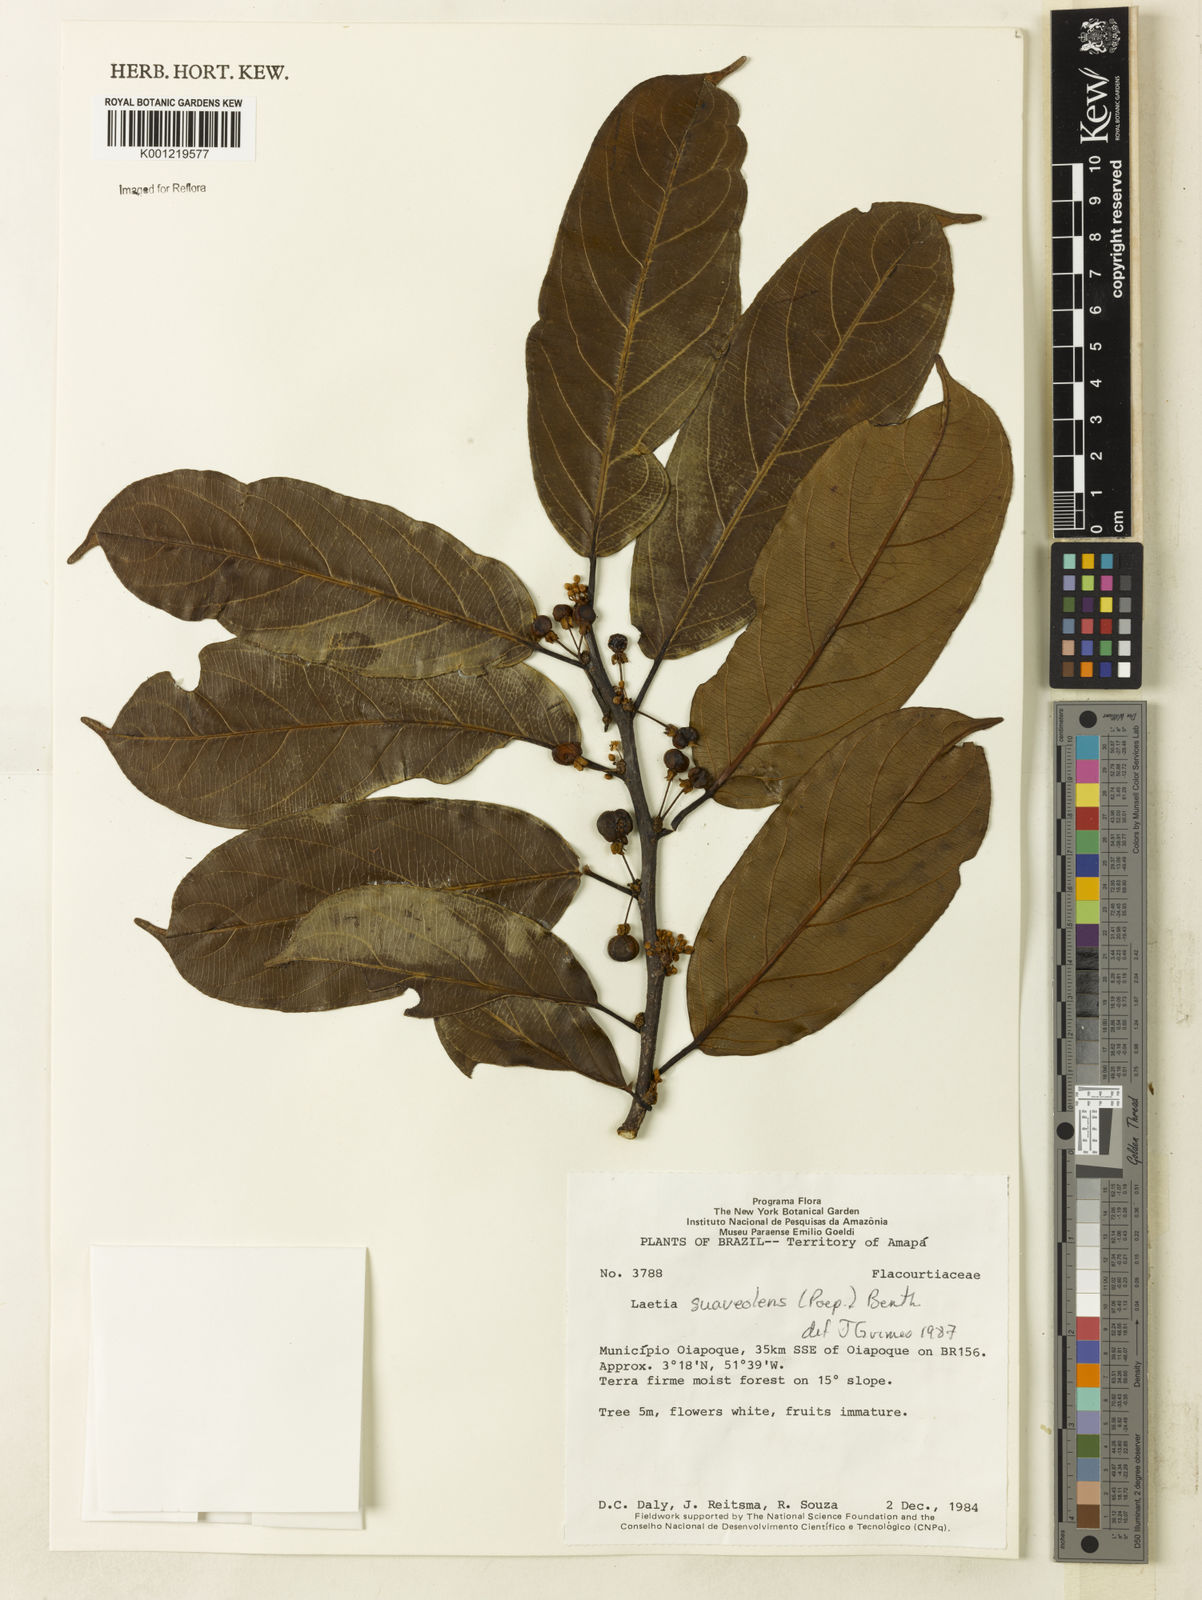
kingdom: Plantae
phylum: Tracheophyta
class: Magnoliopsida
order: Malpighiales
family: Salicaceae
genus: Casearia
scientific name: Casearia suaveolens
